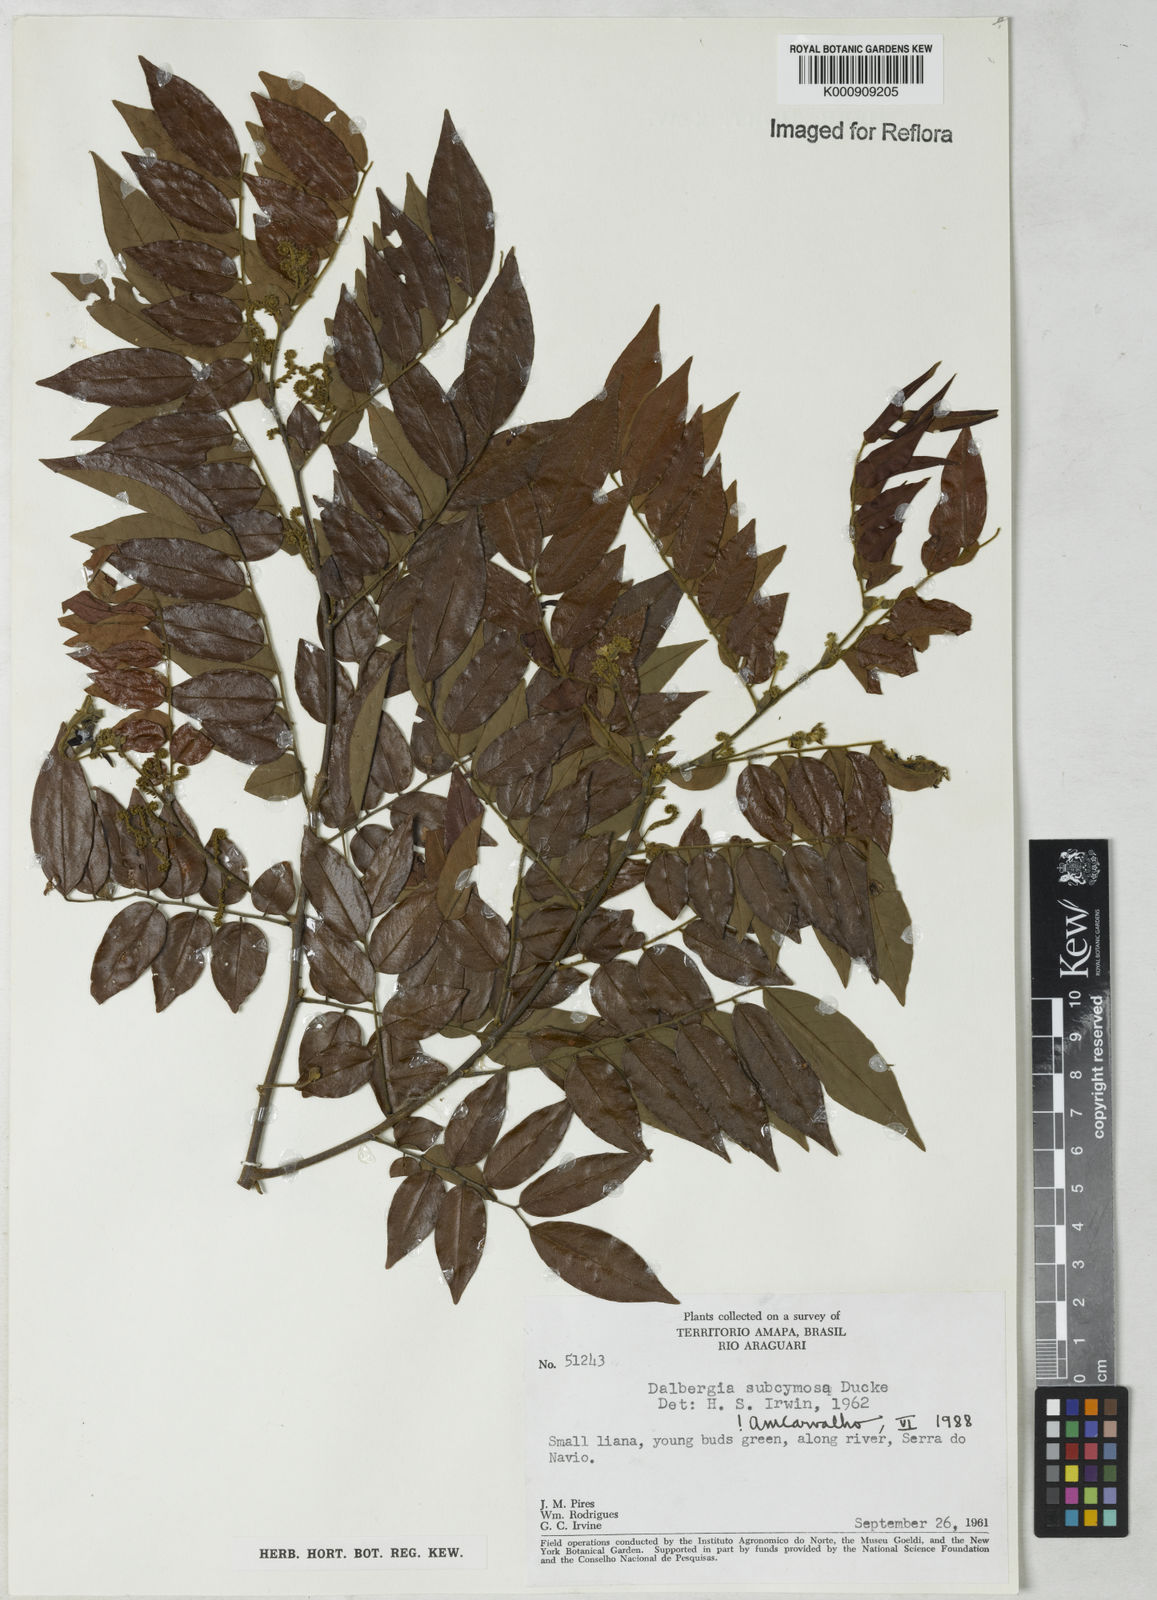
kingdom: Plantae
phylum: Tracheophyta
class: Magnoliopsida
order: Fabales
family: Fabaceae
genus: Dalbergia
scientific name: Dalbergia subcymosa
